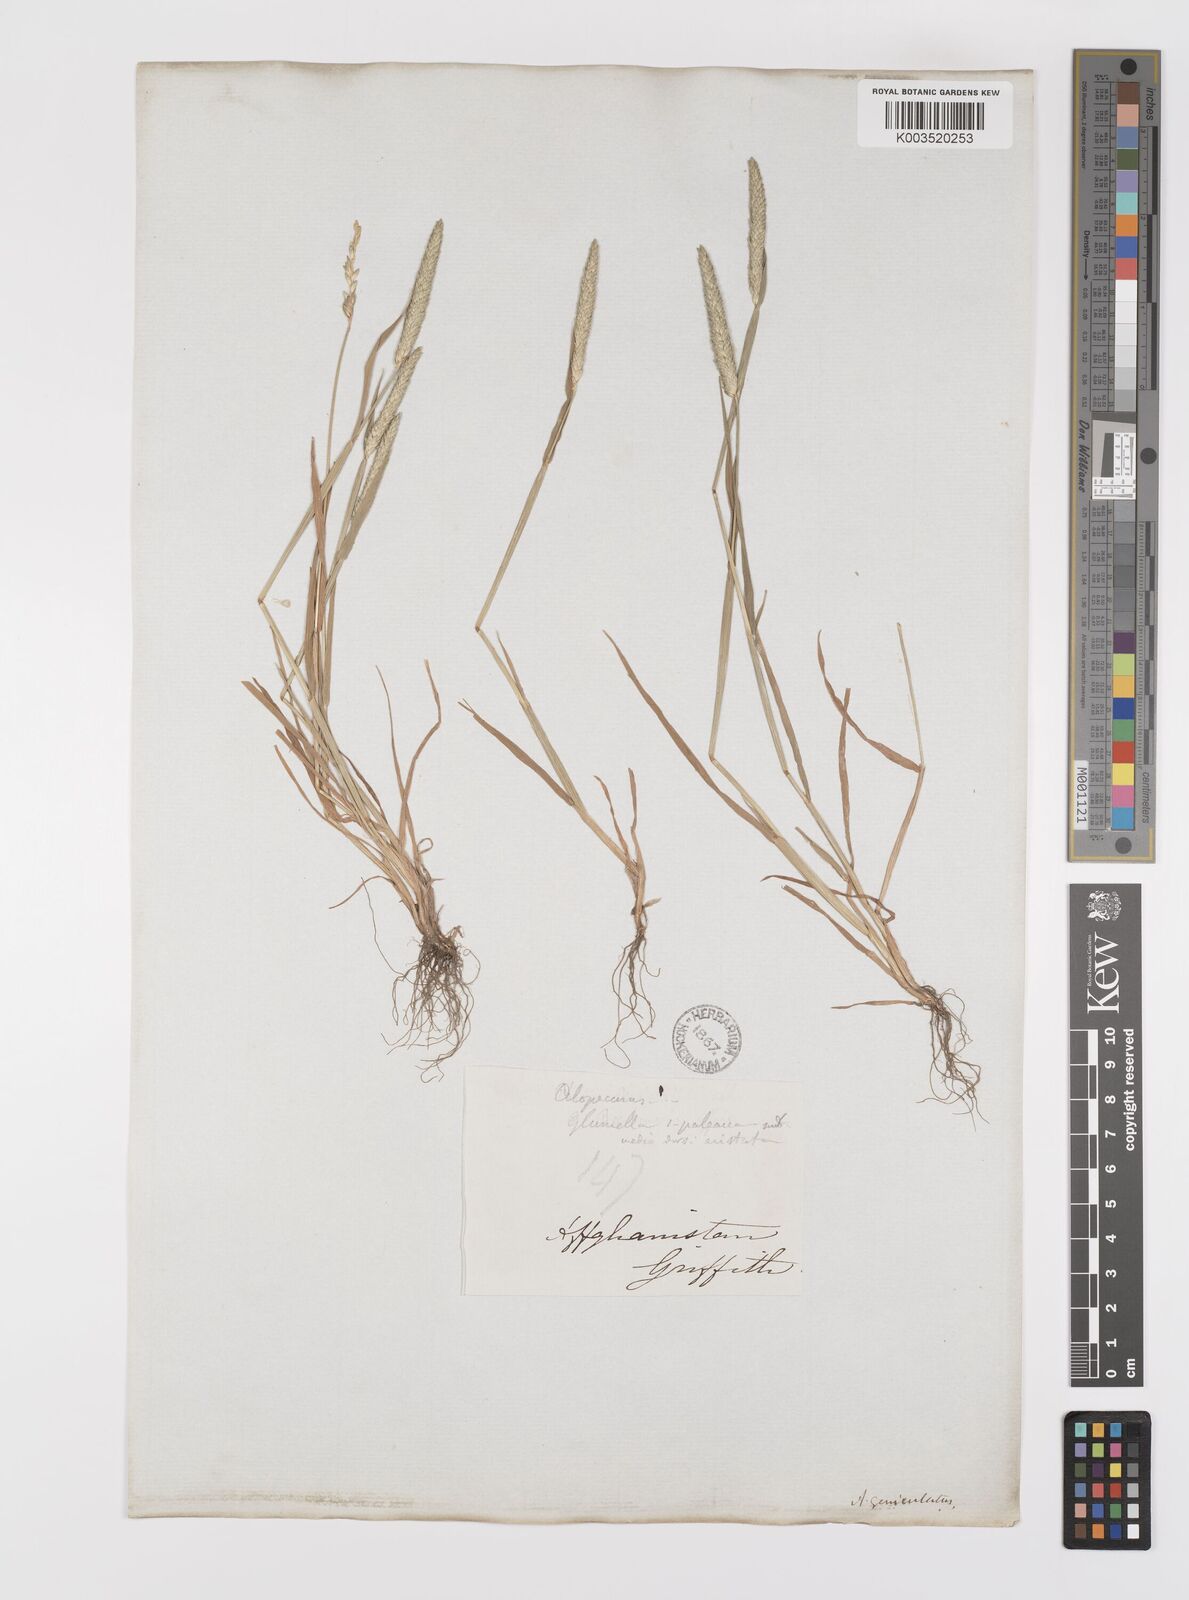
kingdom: Plantae
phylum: Tracheophyta
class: Liliopsida
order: Poales
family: Poaceae
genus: Alopecurus
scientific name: Alopecurus myosuroides
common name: Black-grass
